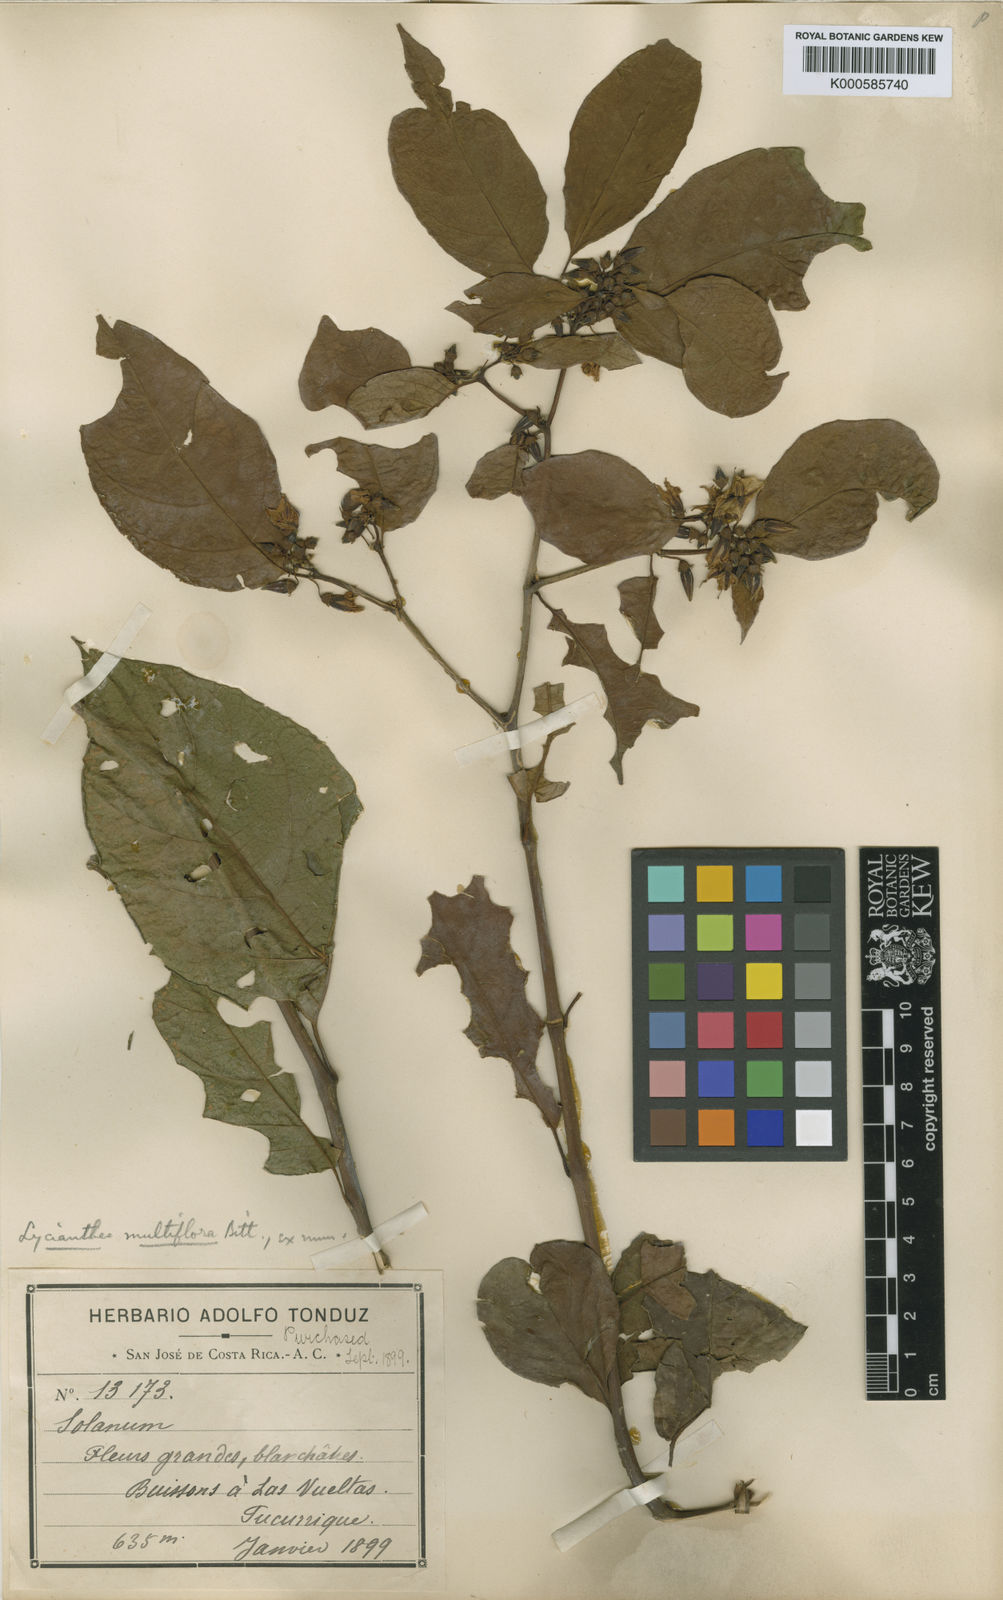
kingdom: Plantae
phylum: Tracheophyta
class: Magnoliopsida
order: Solanales
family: Solanaceae
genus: Lycianthes
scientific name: Lycianthes multiflora
